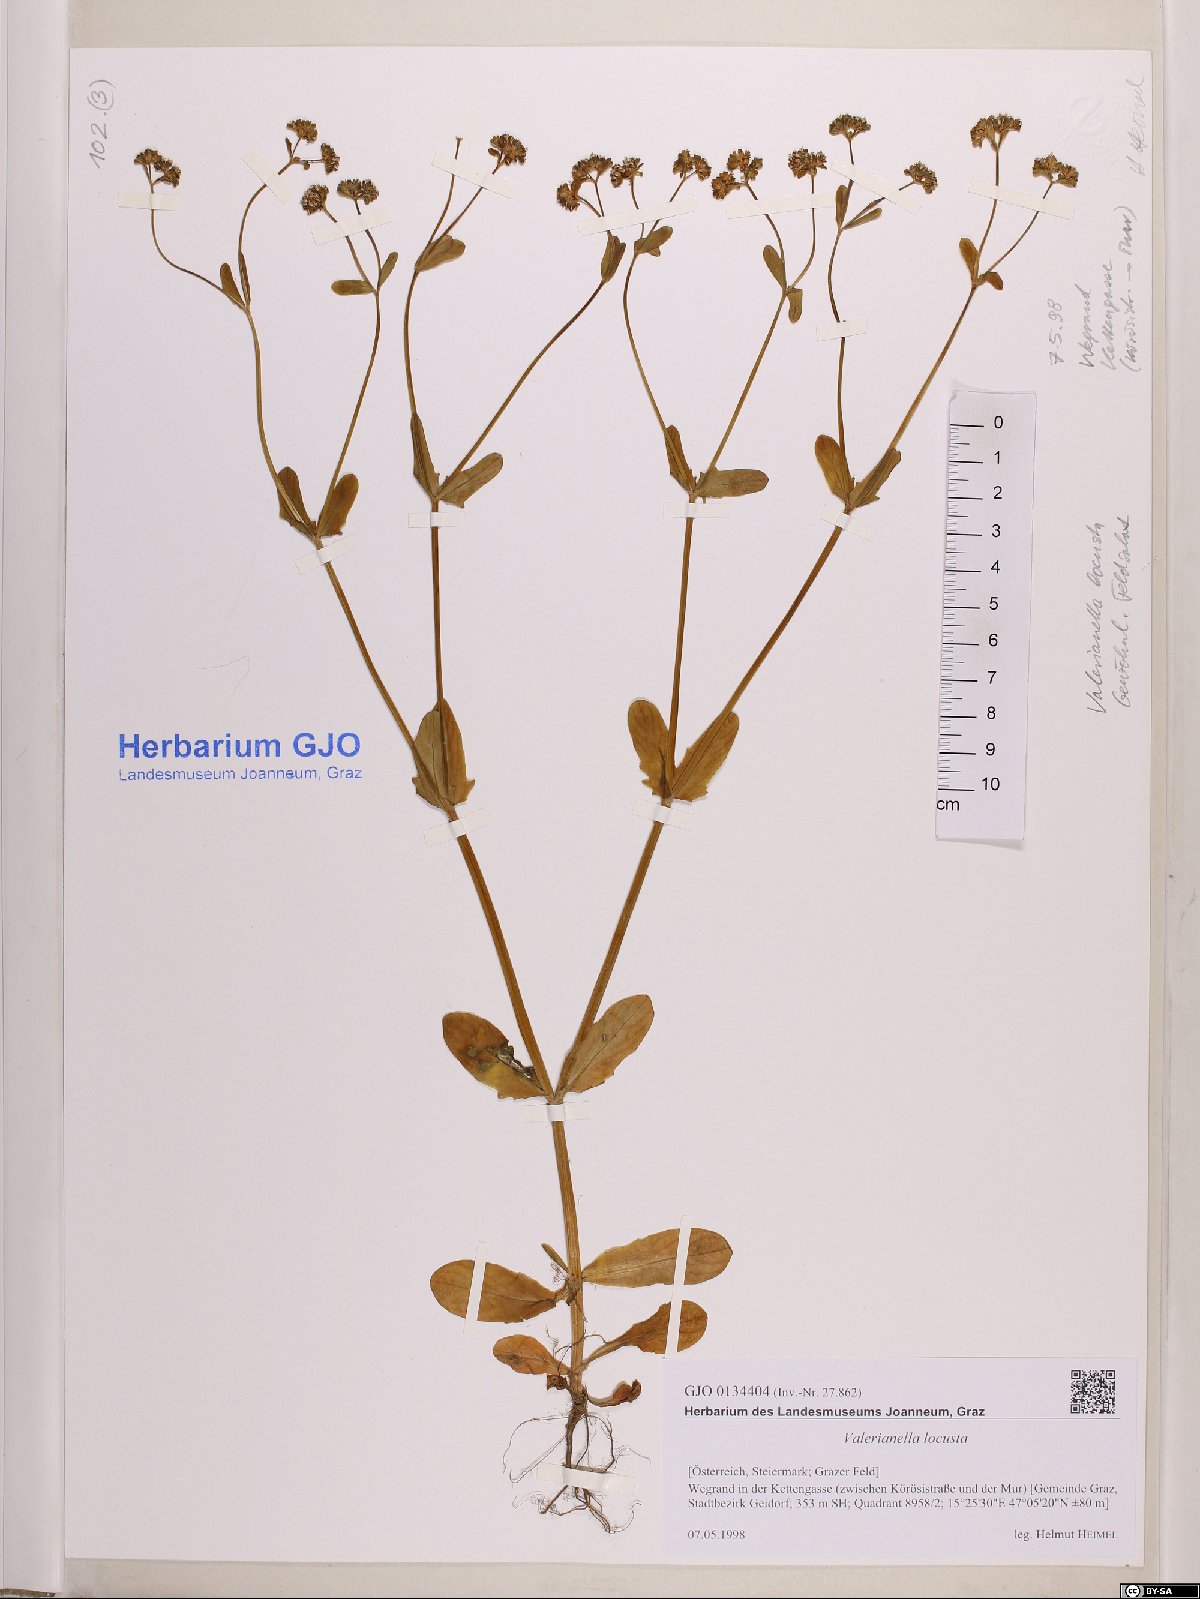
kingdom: Plantae
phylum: Tracheophyta
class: Magnoliopsida
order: Dipsacales
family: Caprifoliaceae
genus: Valerianella
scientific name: Valerianella locusta
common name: Common cornsalad
